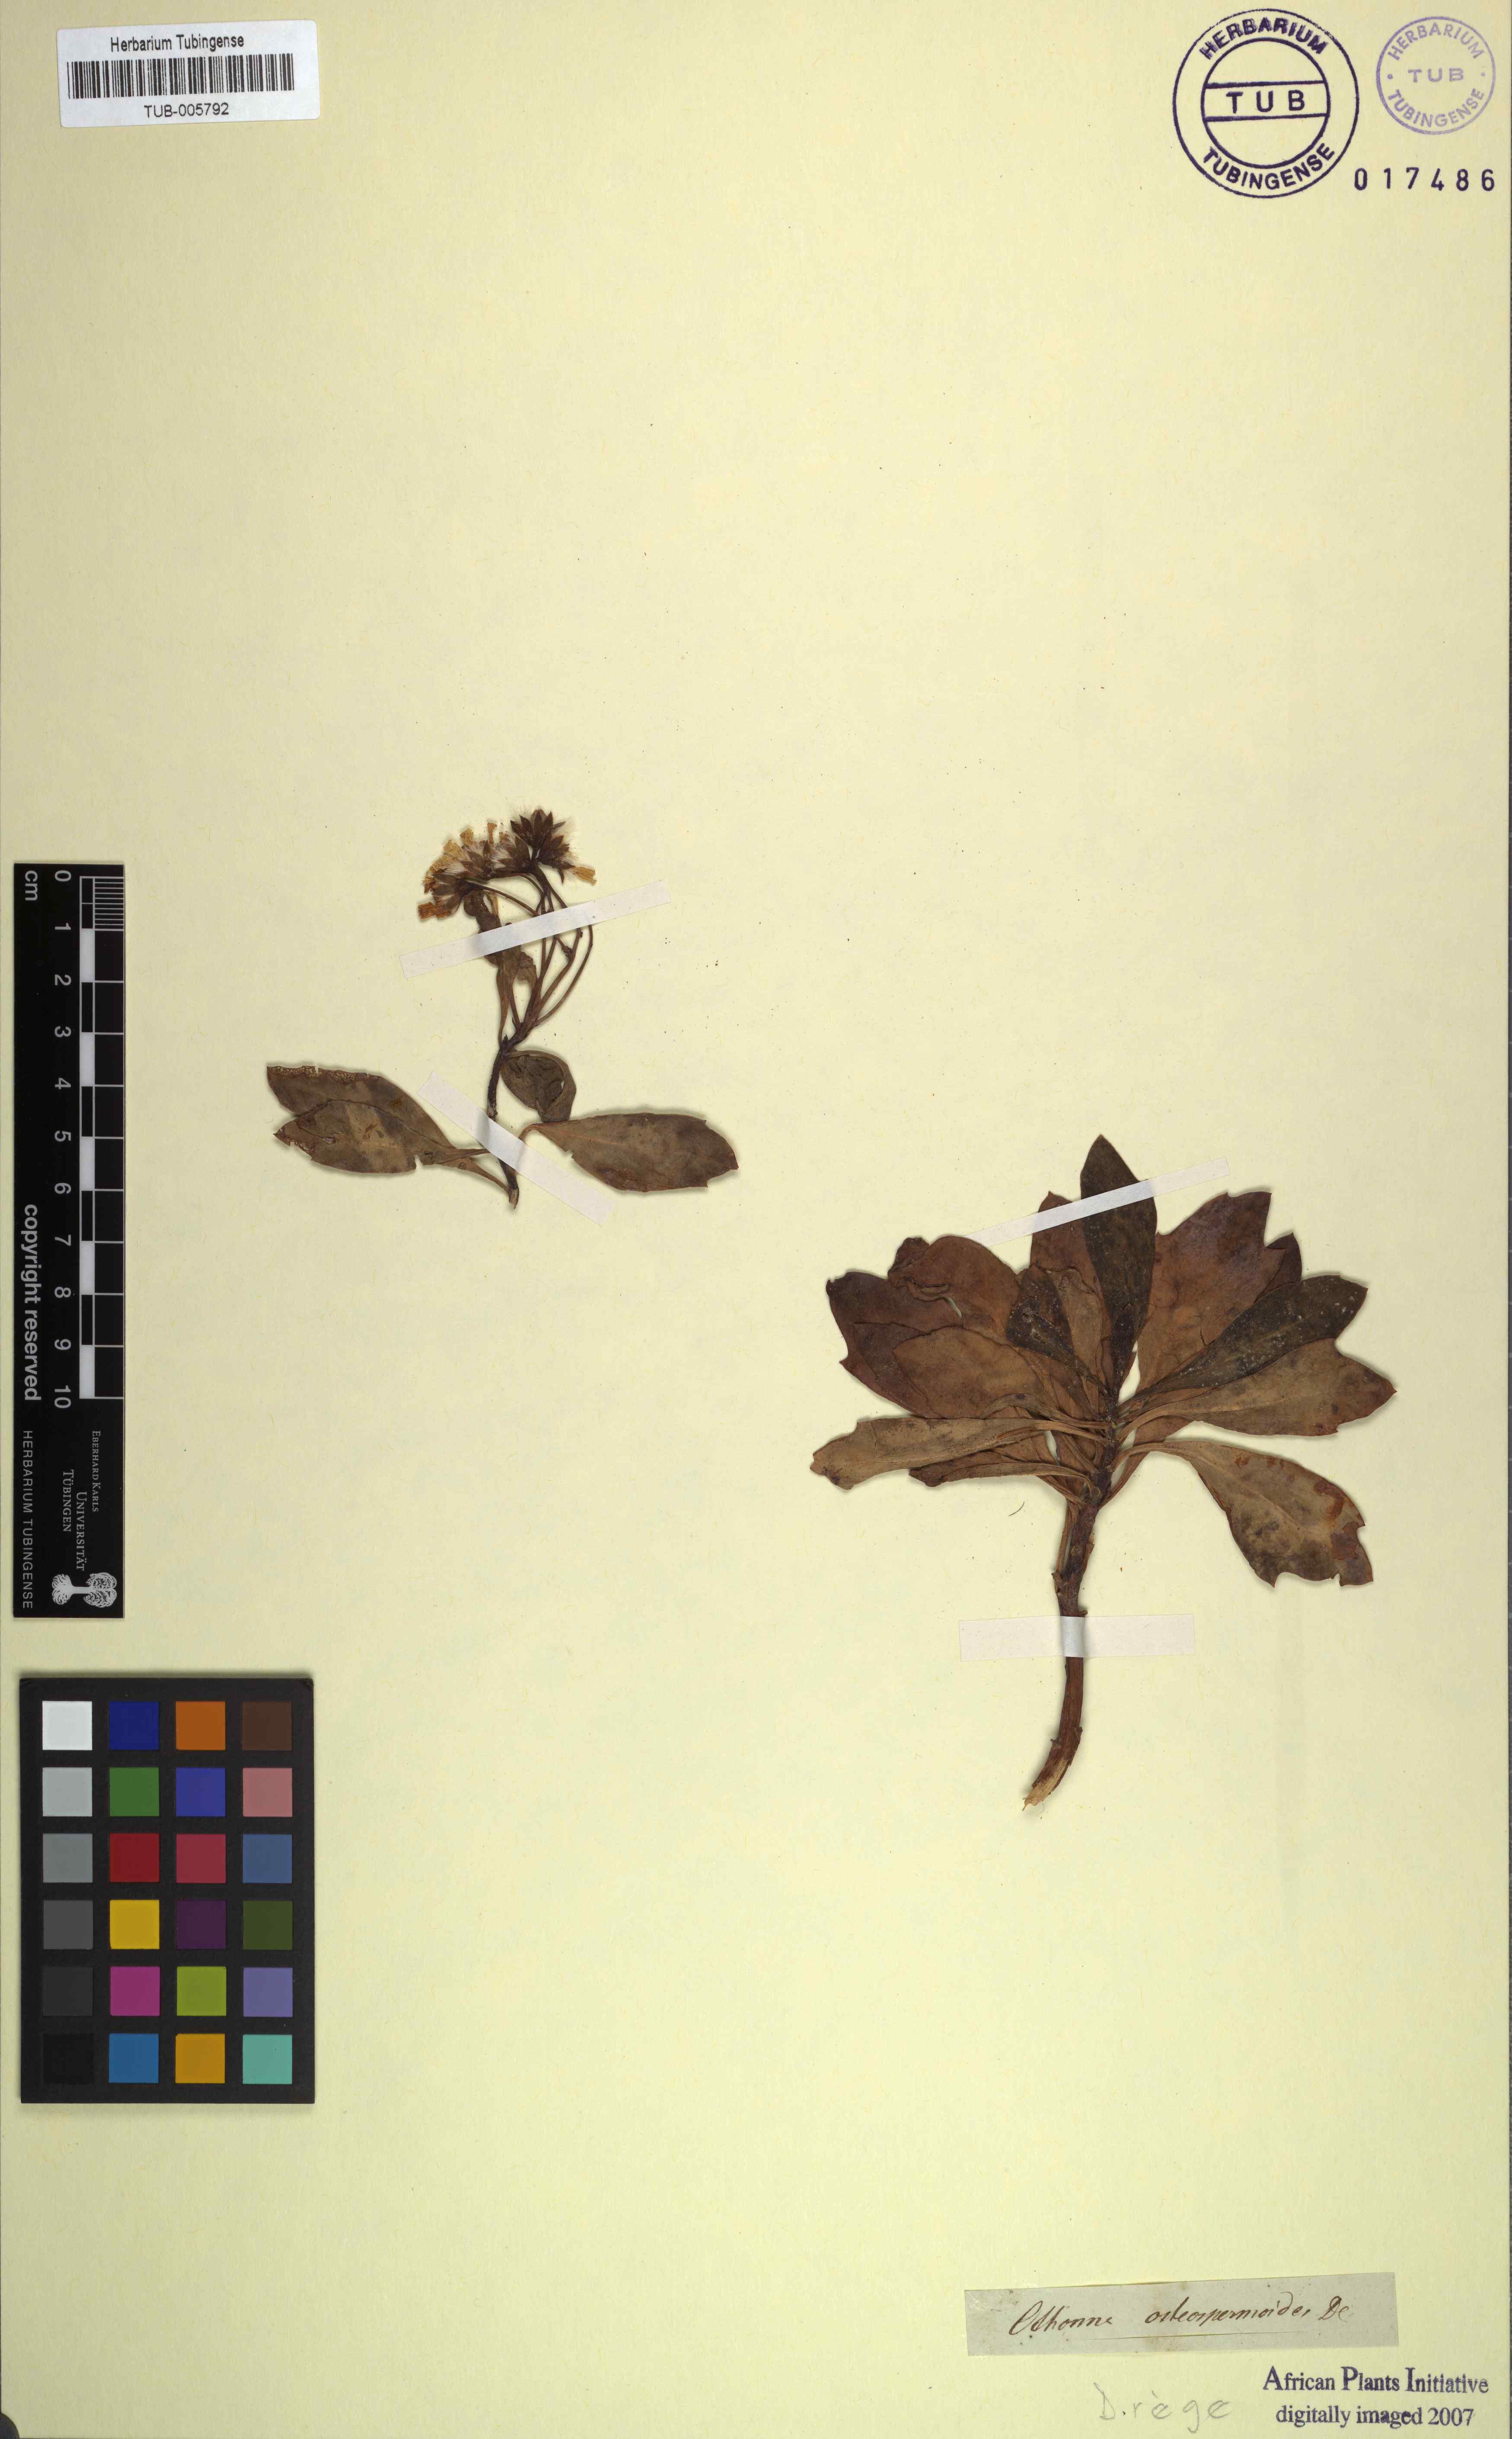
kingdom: Plantae
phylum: Tracheophyta
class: Magnoliopsida
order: Asterales
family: Asteraceae
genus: Othonna
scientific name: Othonna osteospermoides
